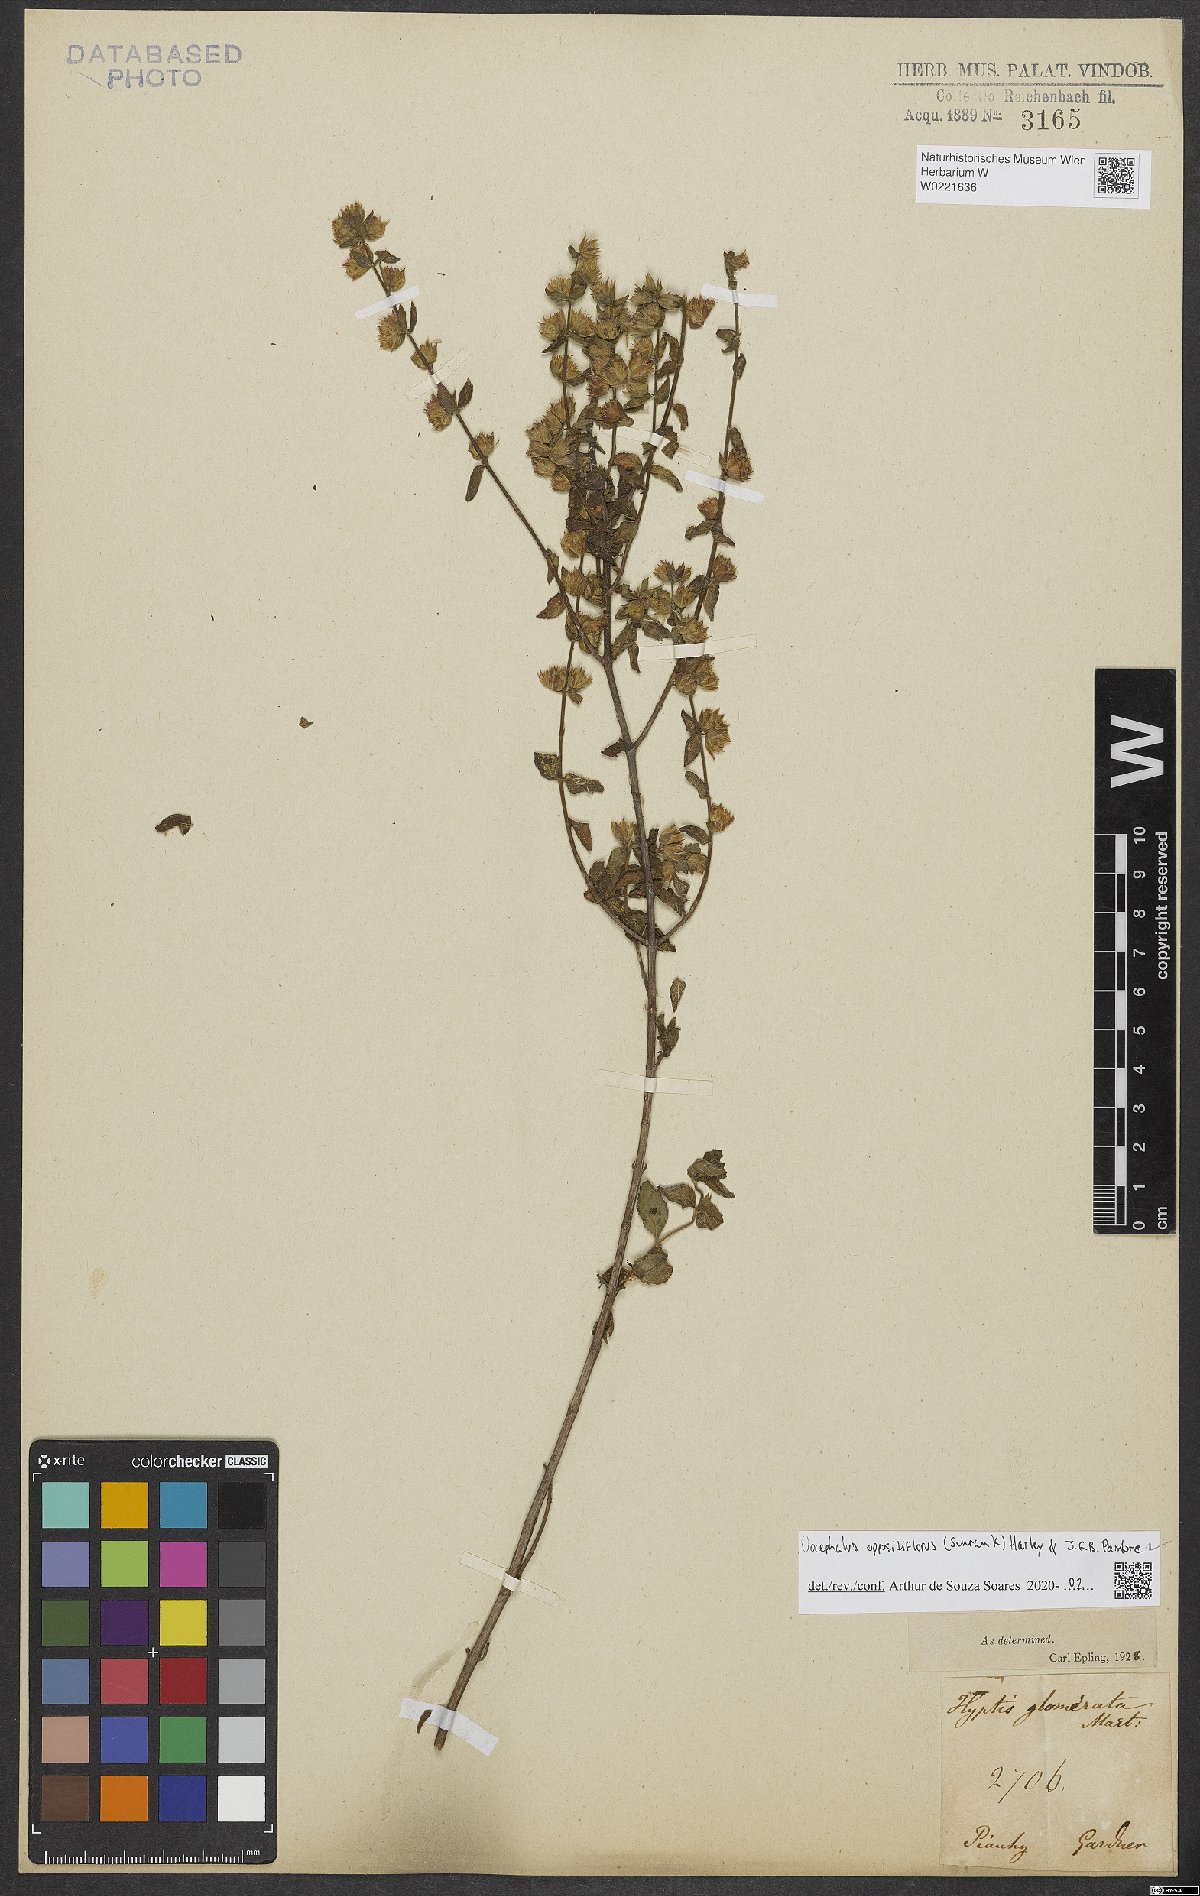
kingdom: Plantae
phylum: Tracheophyta
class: Magnoliopsida
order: Lamiales
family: Lamiaceae
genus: Oocephalus
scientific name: Oocephalus oppositiflorus
